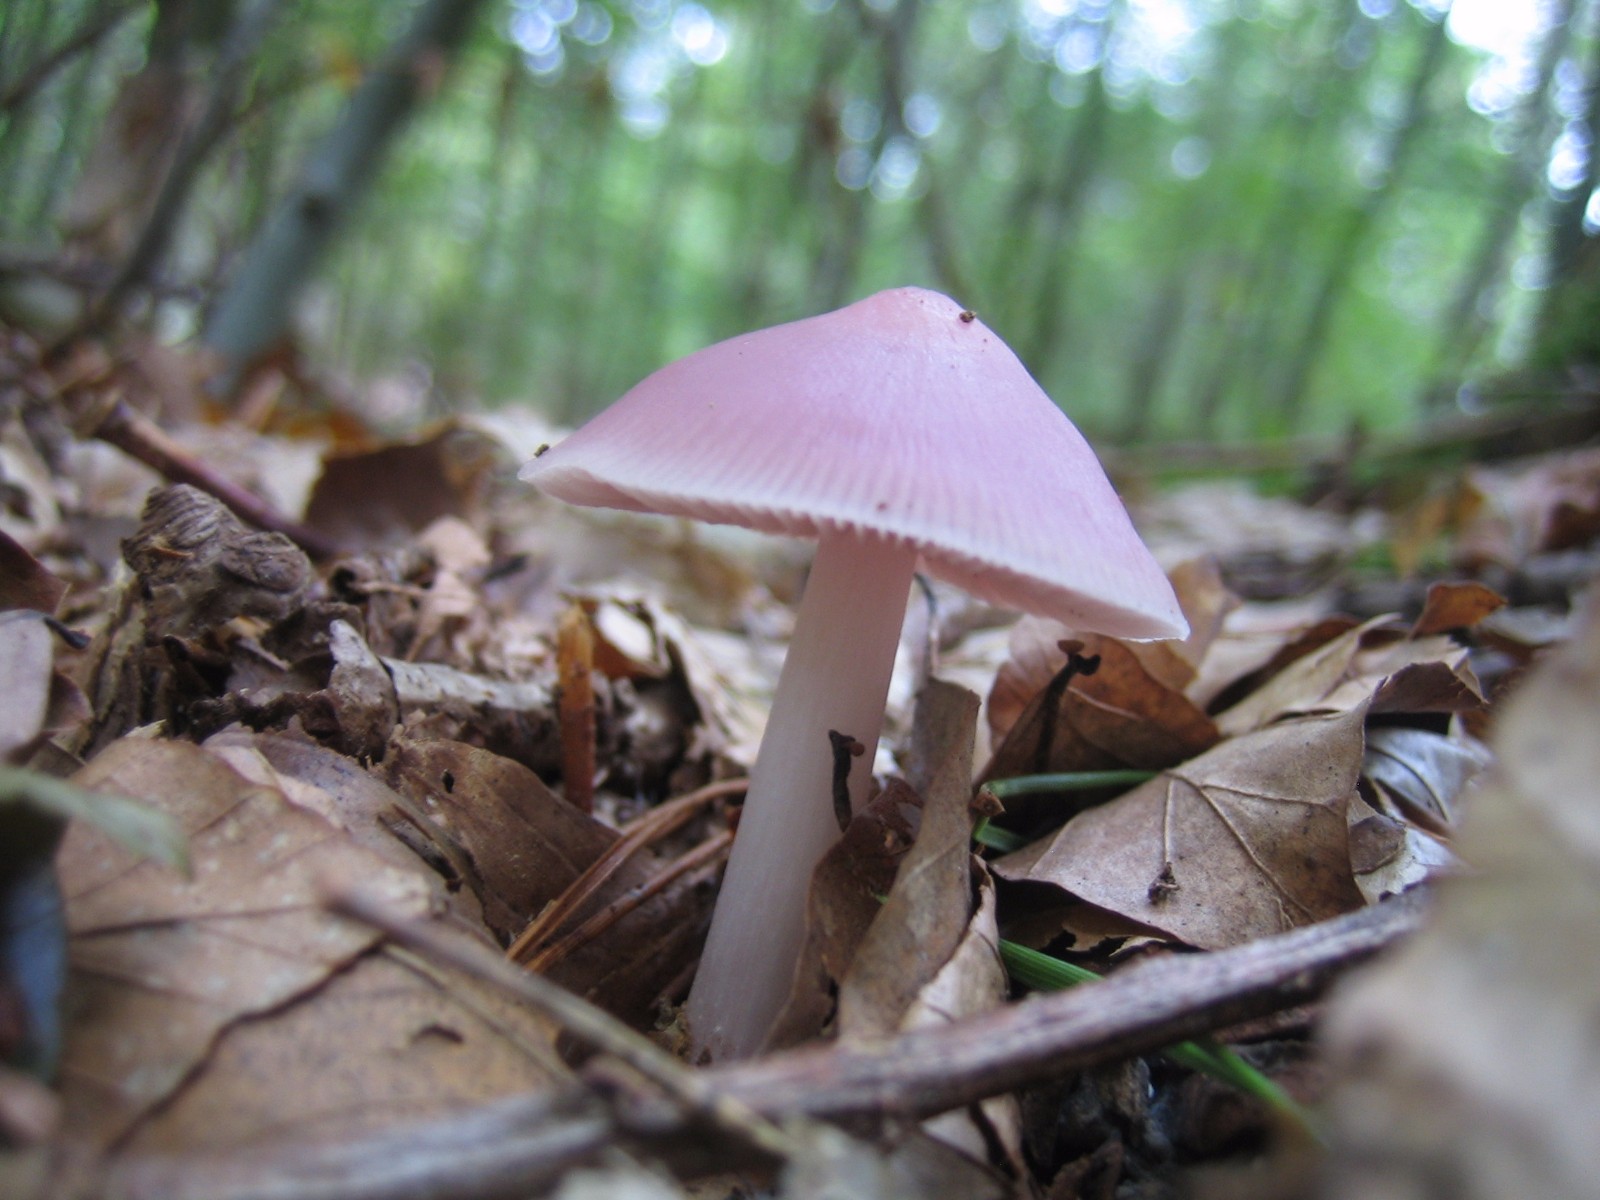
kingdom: Fungi
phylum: Basidiomycota
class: Agaricomycetes
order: Agaricales
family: Mycenaceae
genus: Mycena
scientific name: Mycena rosea
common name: rosa huesvamp
